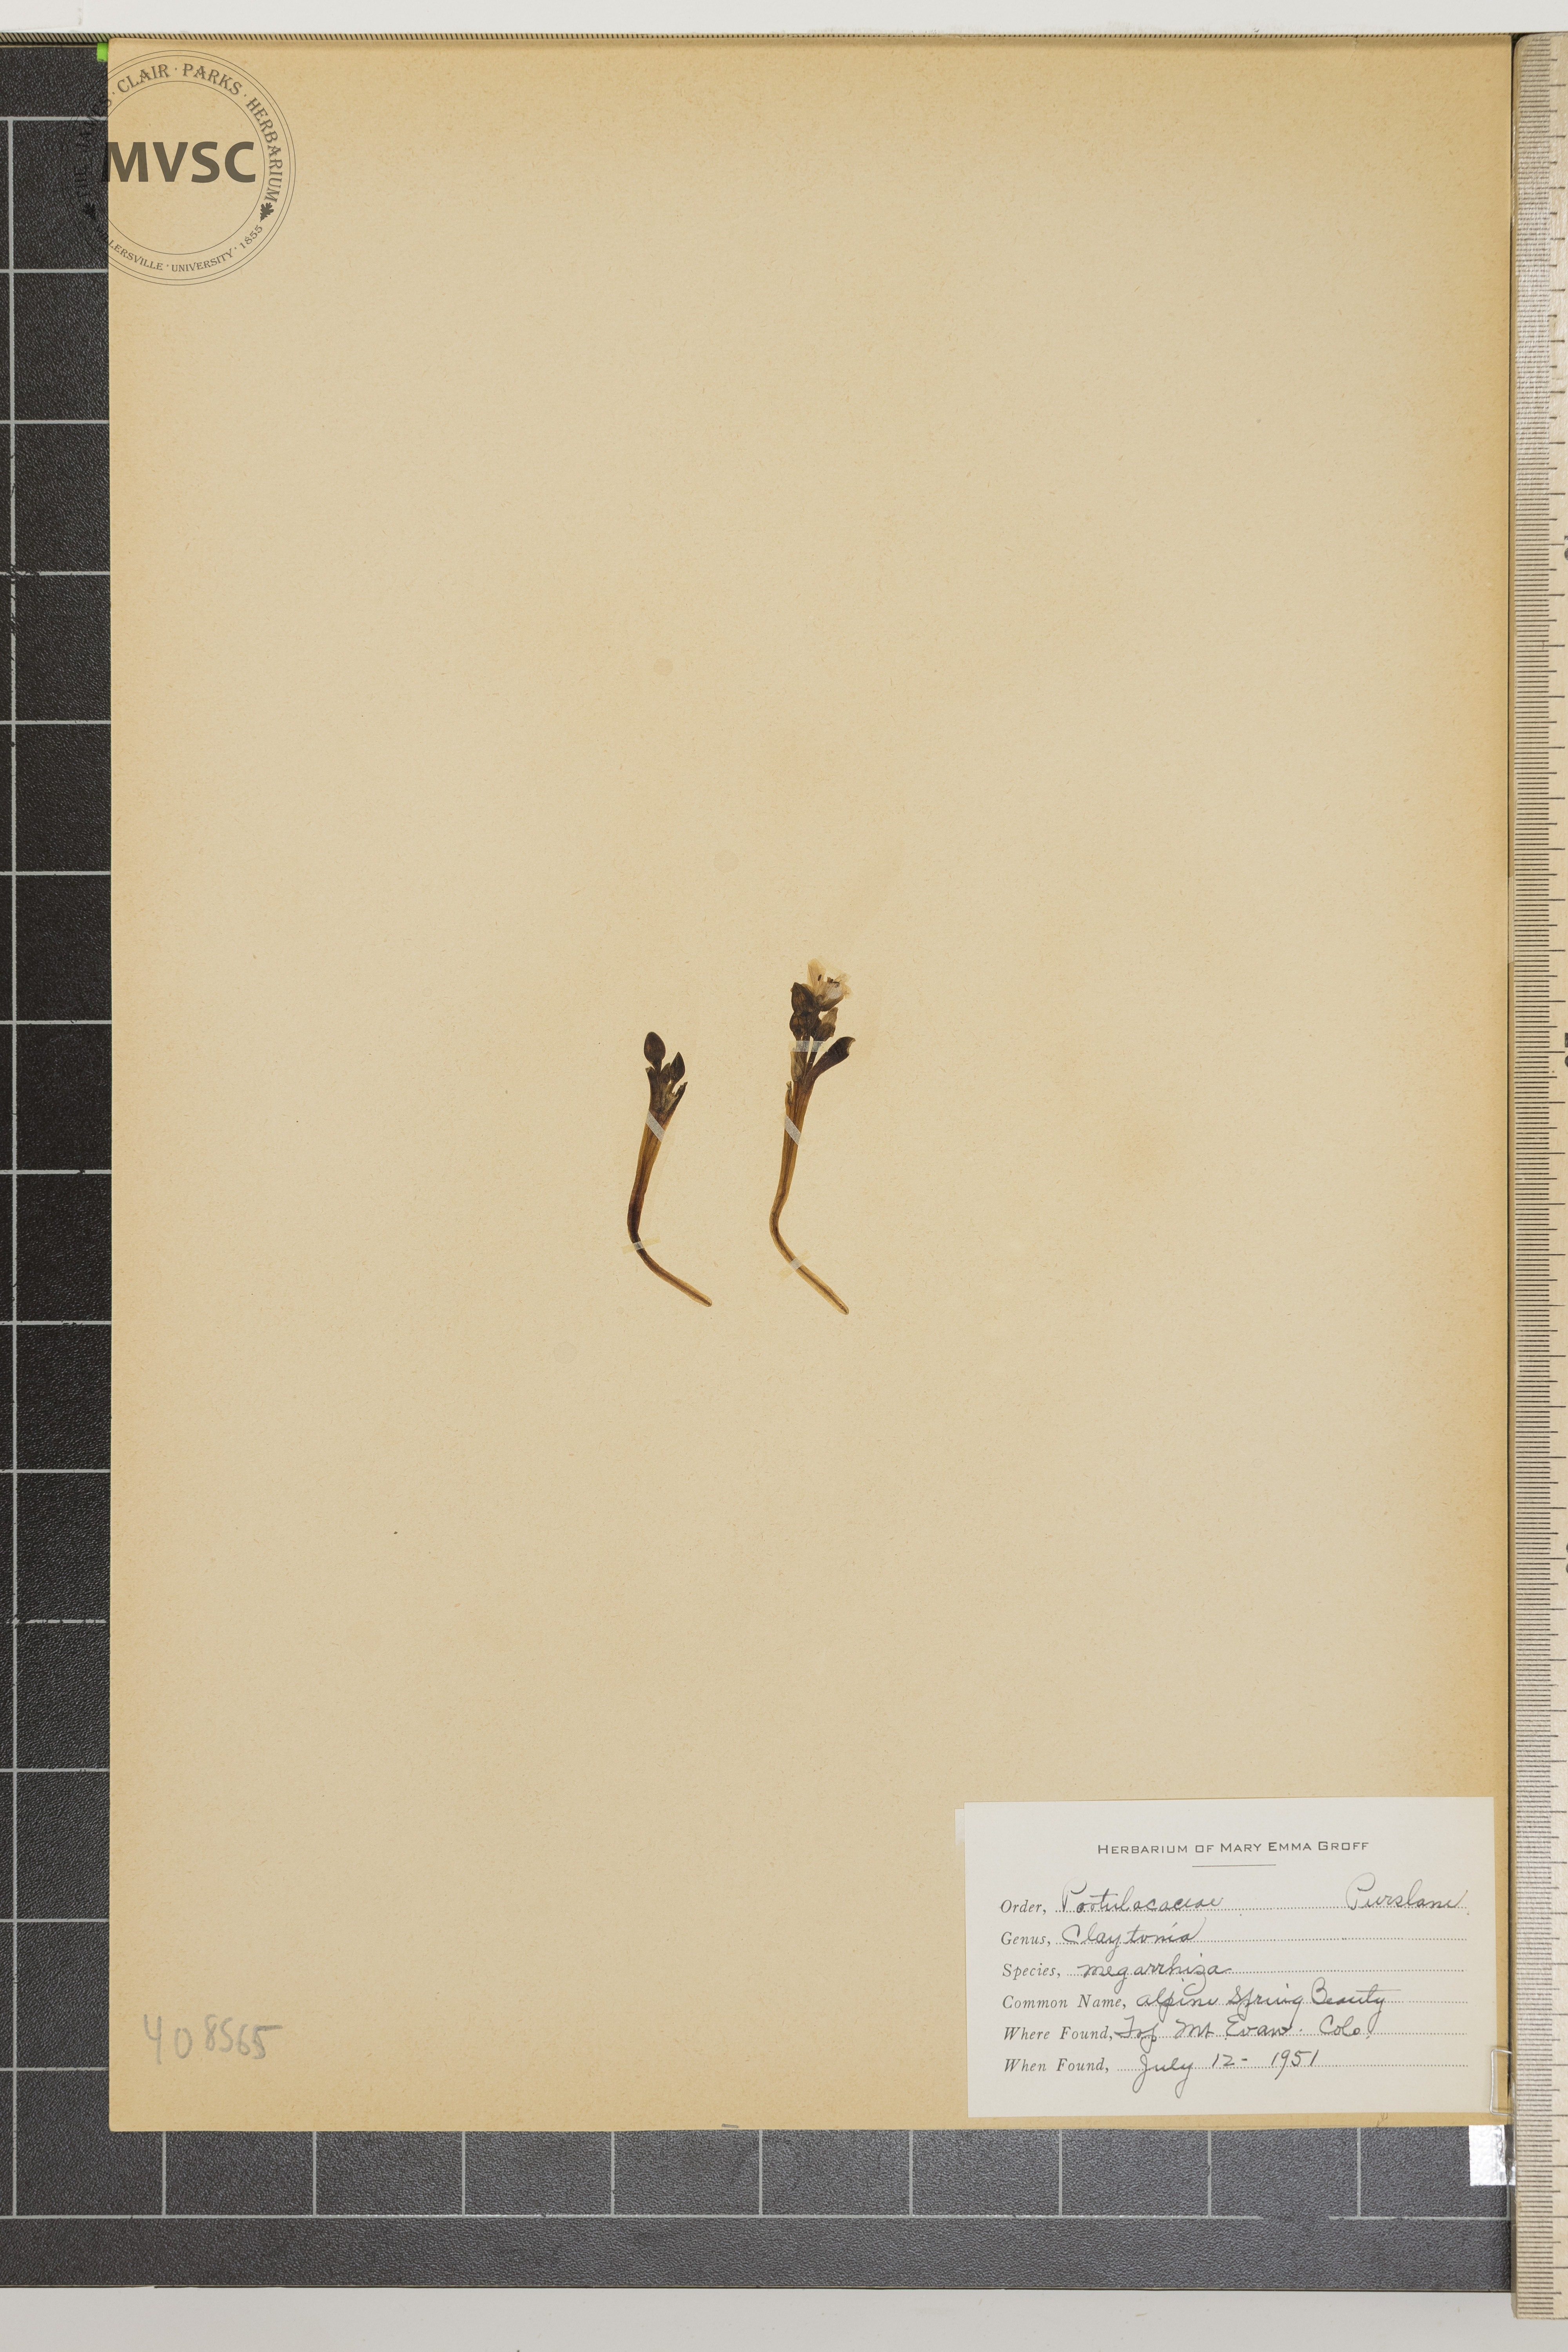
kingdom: Plantae
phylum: Tracheophyta
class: Magnoliopsida
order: Caryophyllales
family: Montiaceae
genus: Claytonia
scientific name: Claytonia megarhiza
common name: Alpine Spring Beauty
